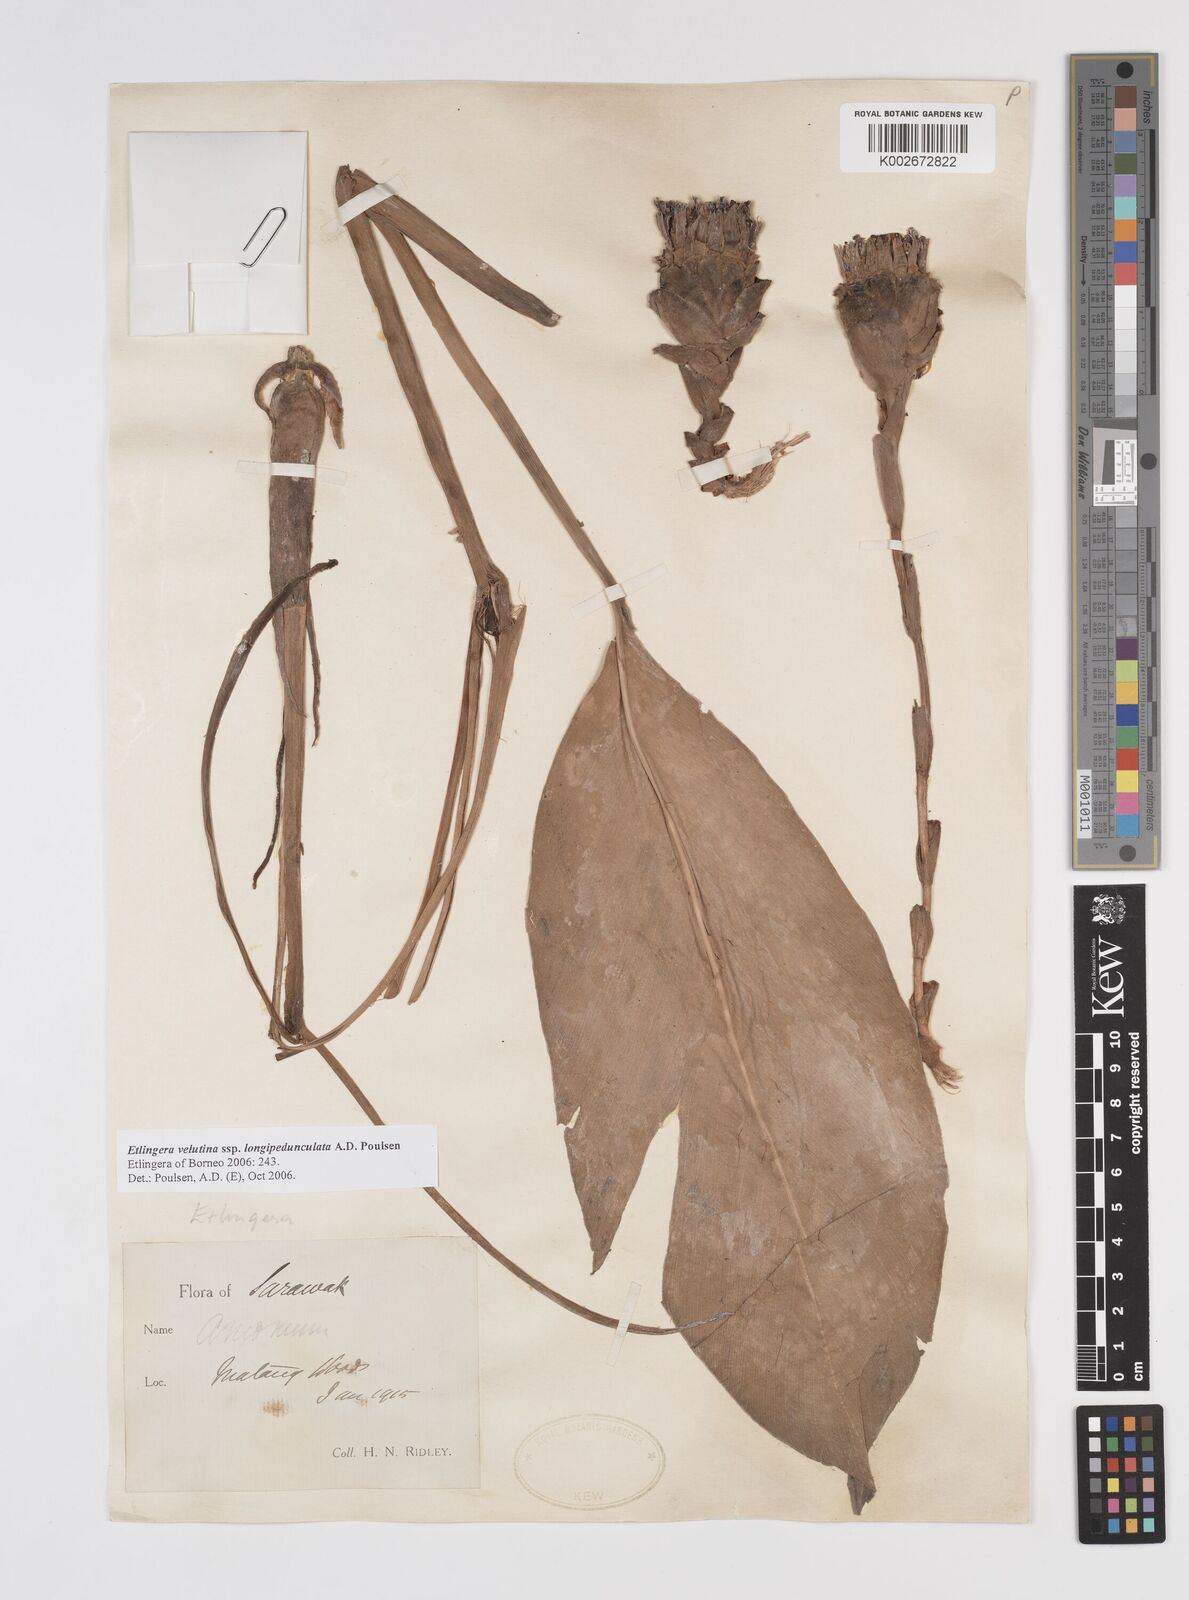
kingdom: Plantae
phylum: Tracheophyta
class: Liliopsida
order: Zingiberales
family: Zingiberaceae
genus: Etlingera
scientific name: Etlingera velutina
